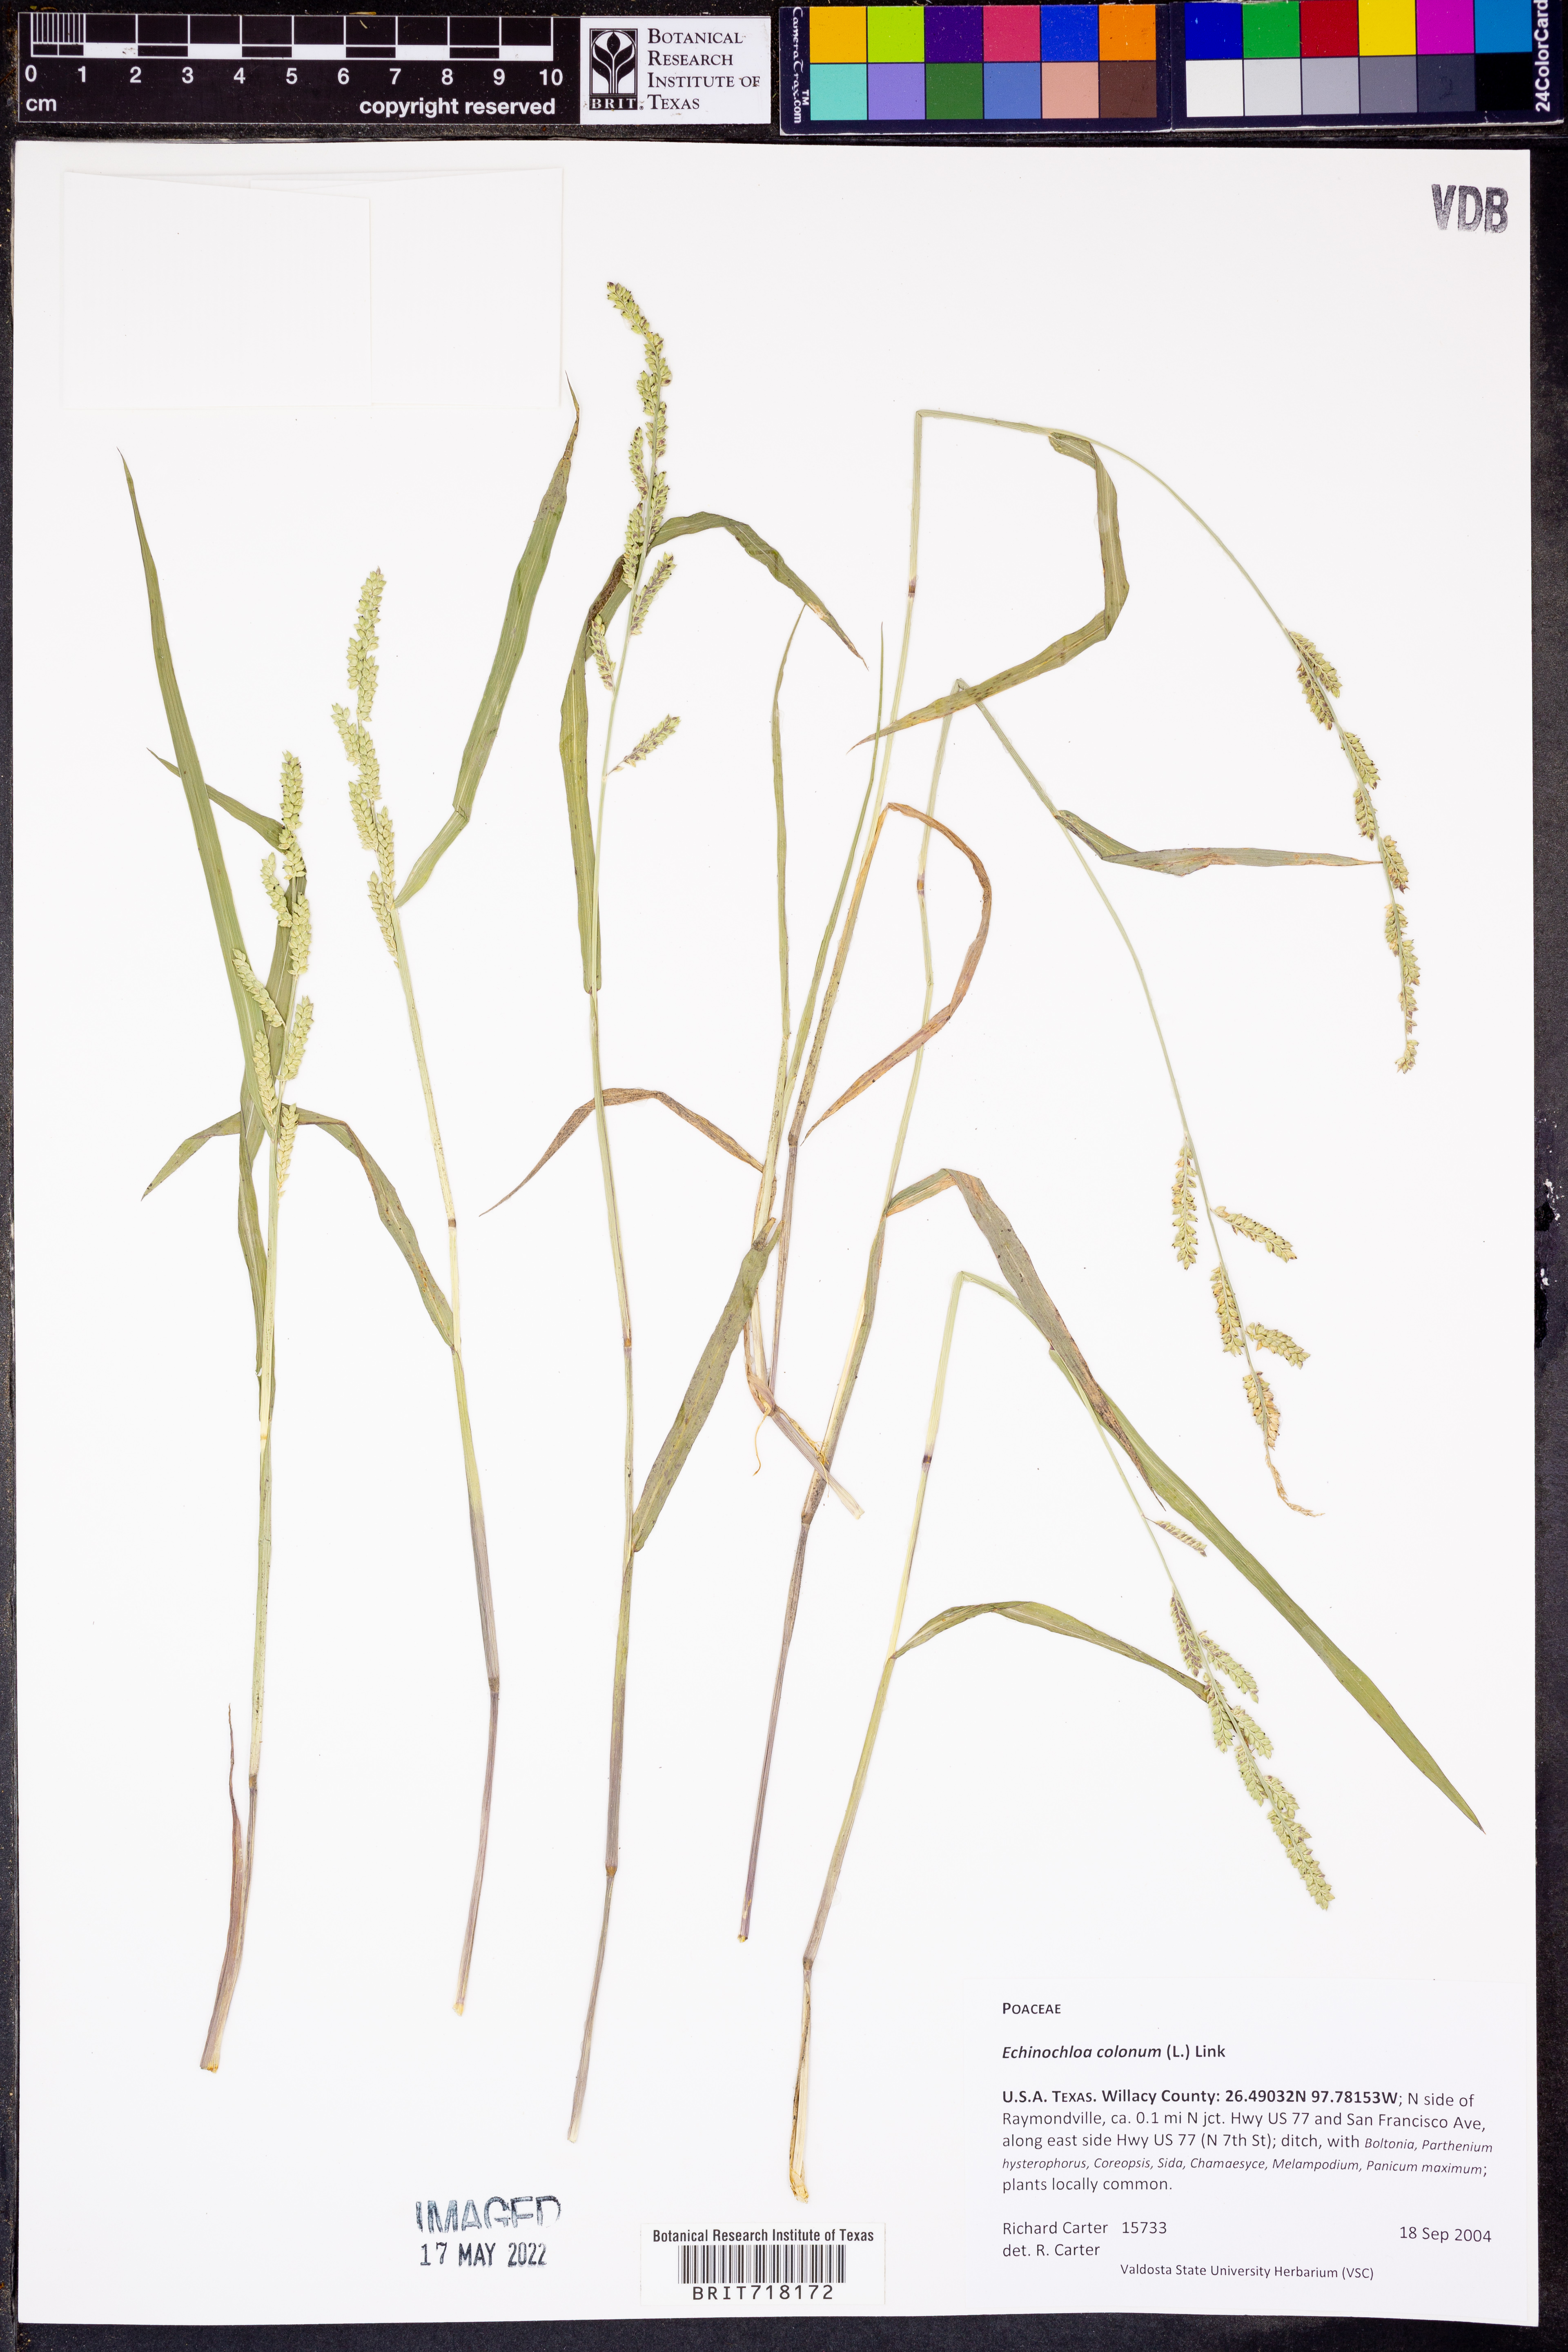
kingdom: Plantae
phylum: Tracheophyta
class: Liliopsida
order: Poales
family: Poaceae
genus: Echinochloa
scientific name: Echinochloa colonum
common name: Jungle rice
